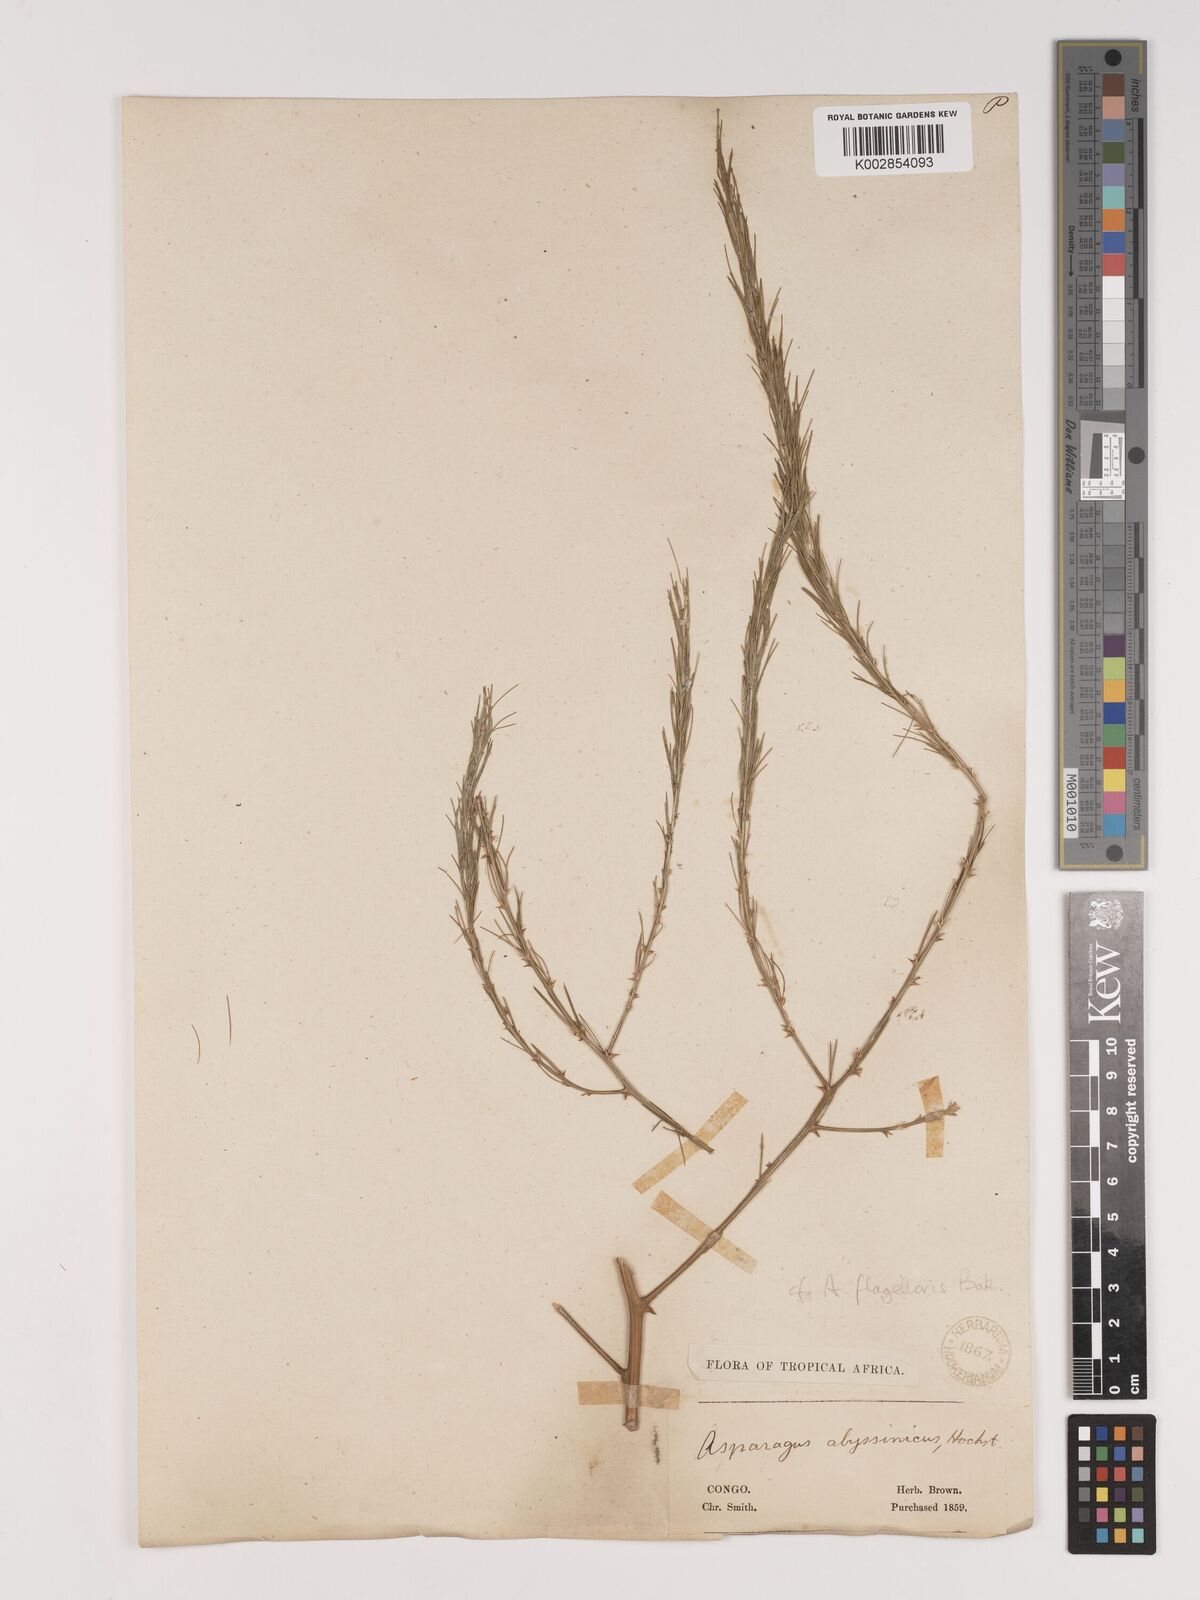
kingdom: Plantae
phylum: Tracheophyta
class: Liliopsida
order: Asparagales
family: Asparagaceae
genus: Asparagus
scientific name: Asparagus flagellaris
